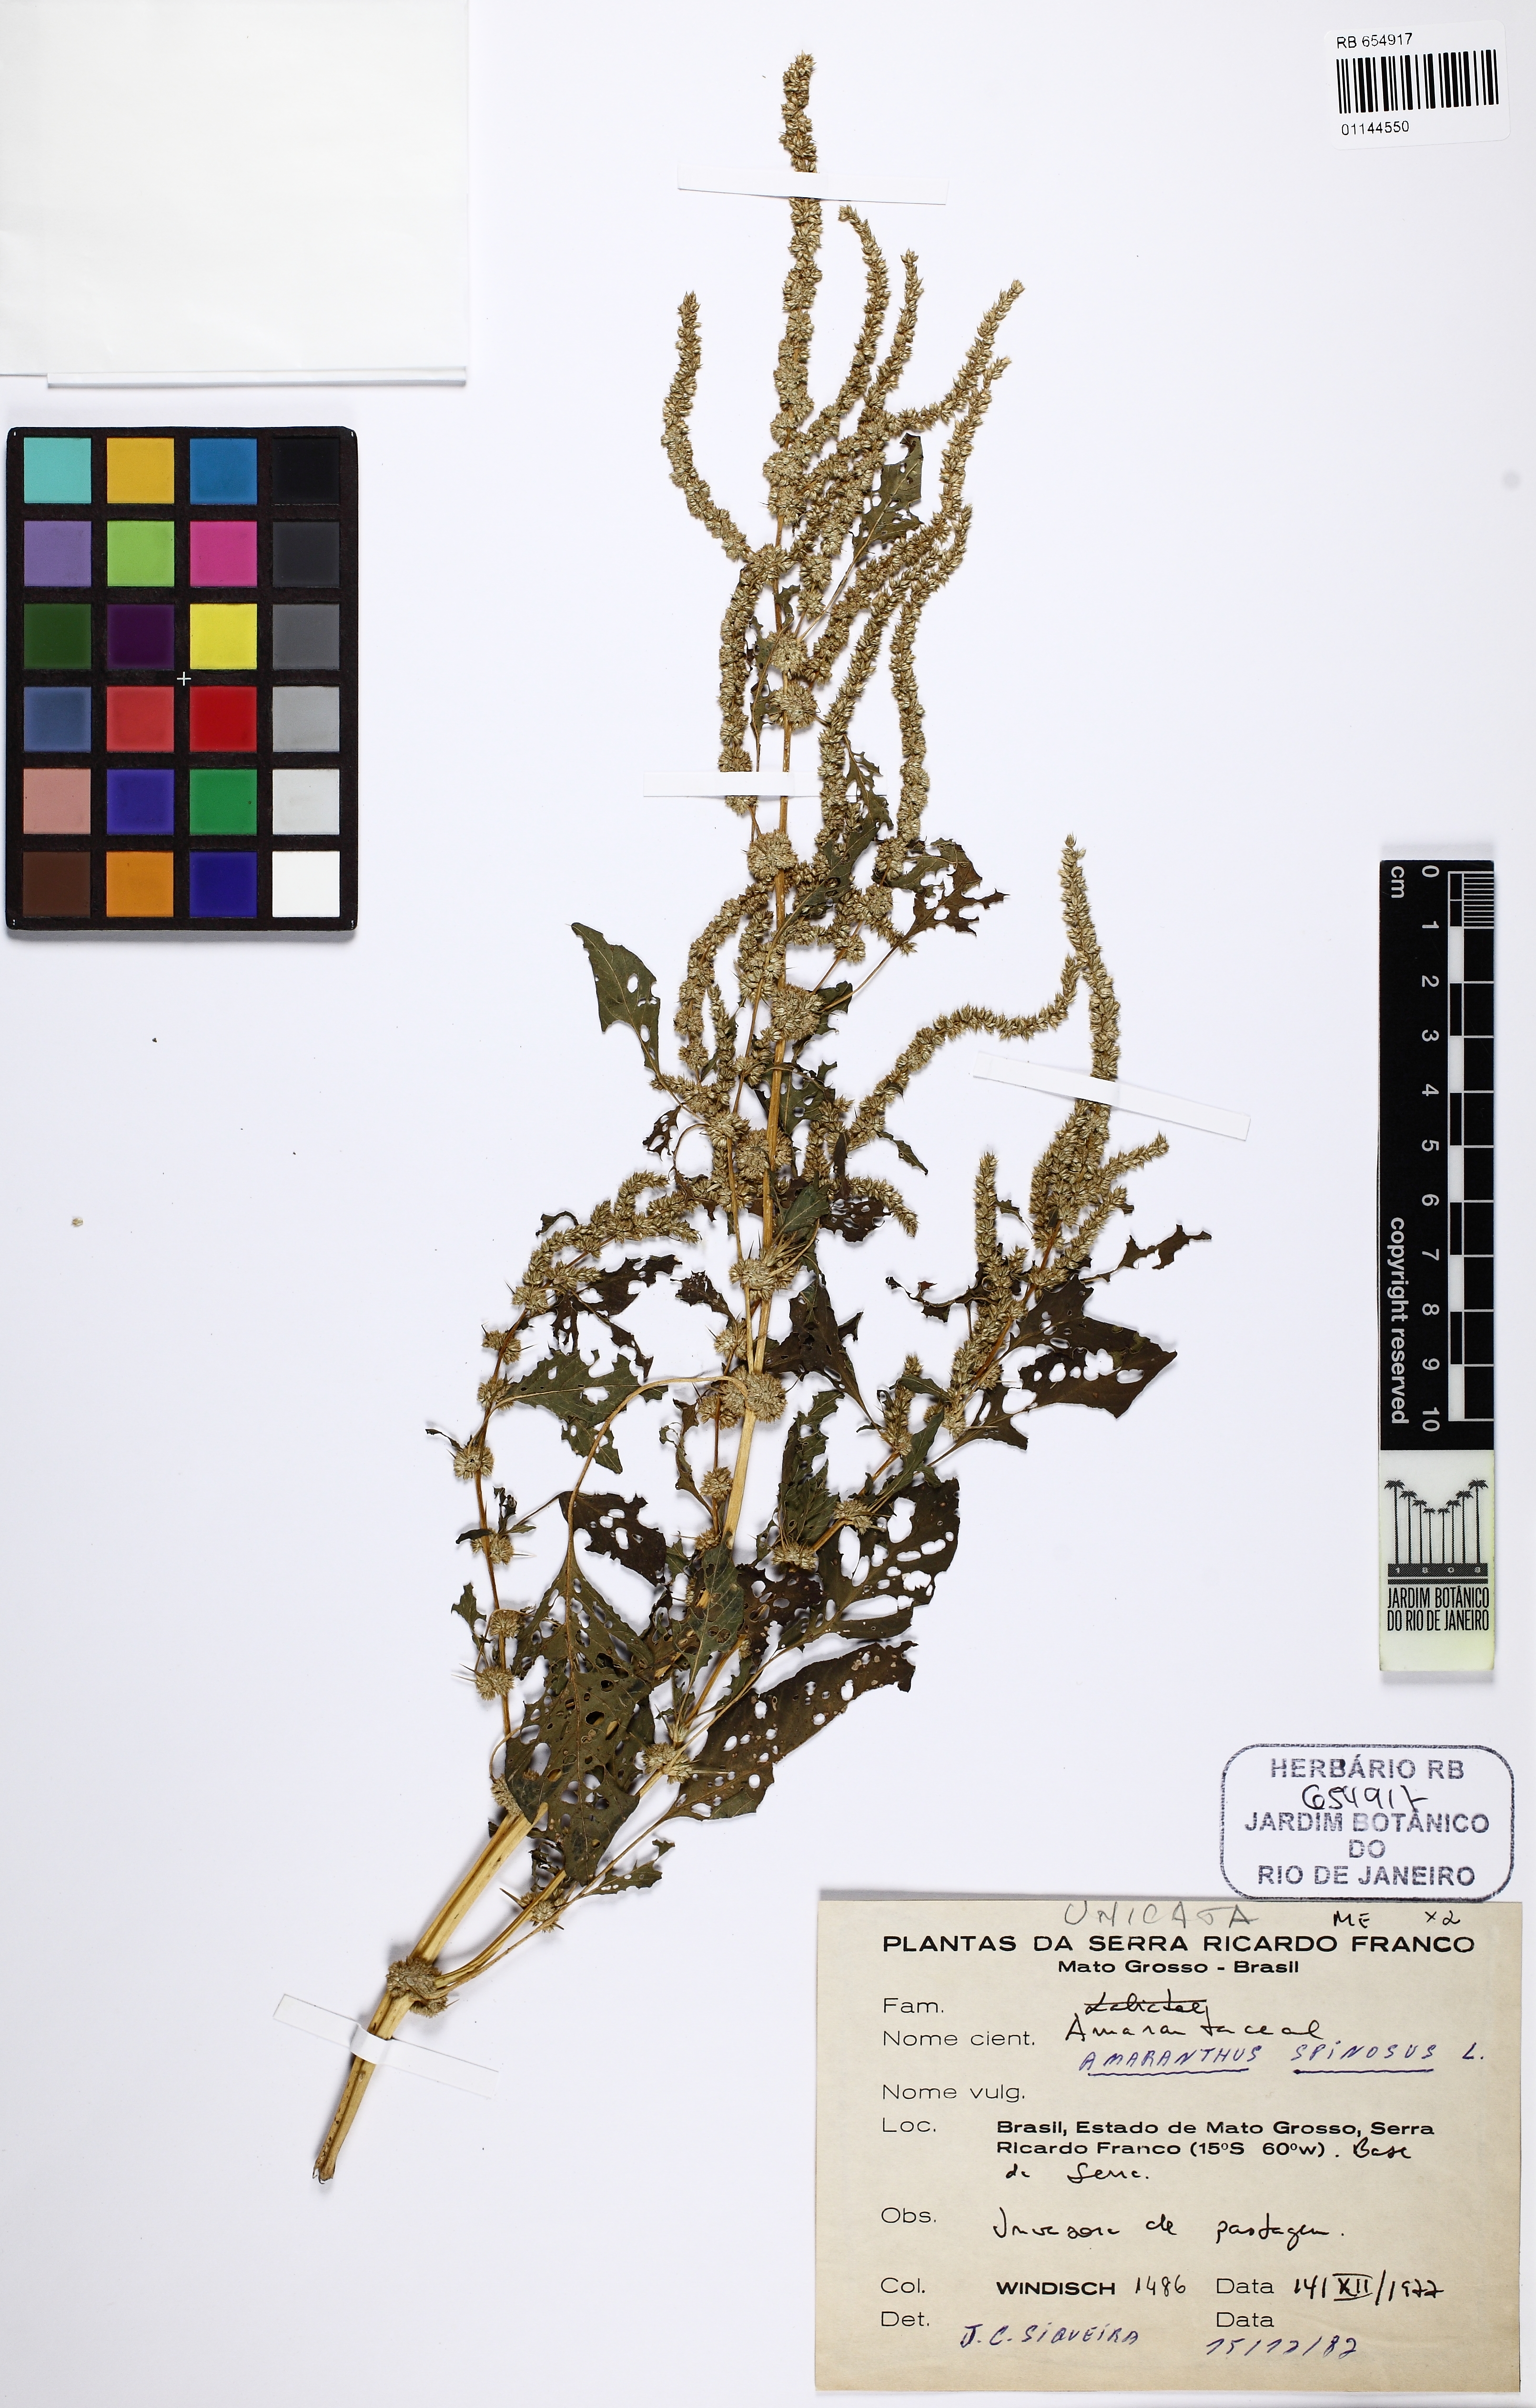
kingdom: Plantae
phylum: Tracheophyta
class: Magnoliopsida
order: Caryophyllales
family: Amaranthaceae
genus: Amaranthus
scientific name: Amaranthus spinosus
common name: Spiny amaranth
